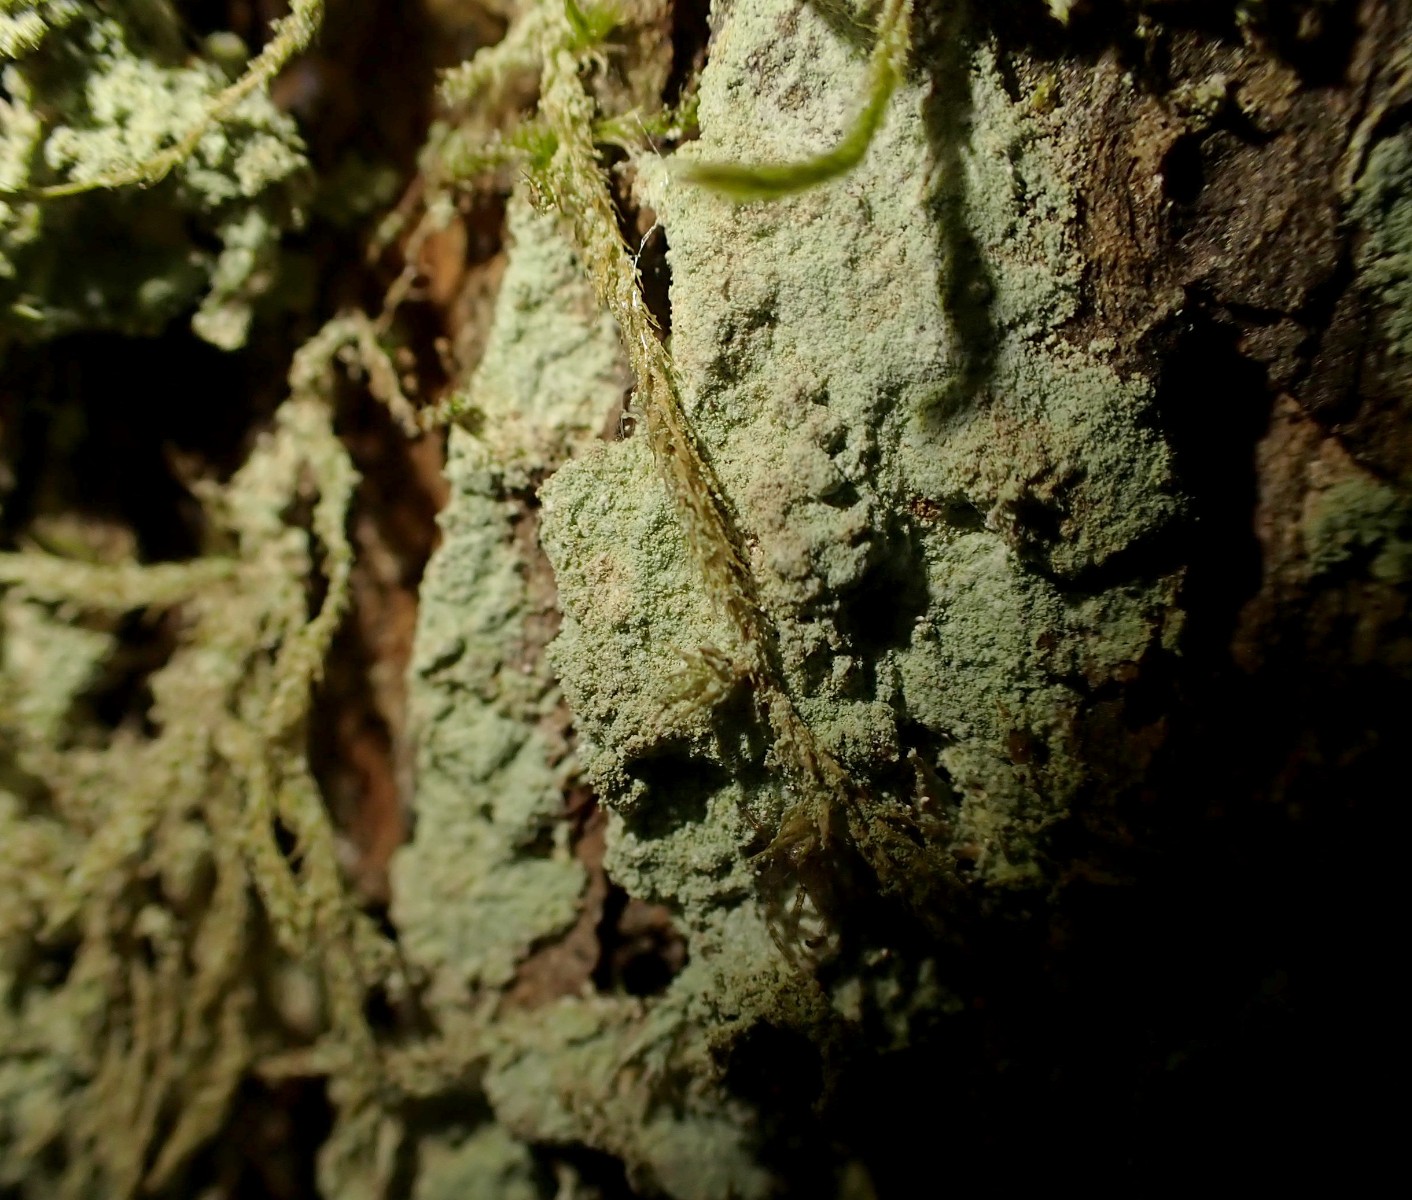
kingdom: Fungi
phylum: Ascomycota
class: Lecanoromycetes
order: Lecanorales
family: Stereocaulaceae
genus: Lepraria
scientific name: Lepraria incana
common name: almindelig støvlav
